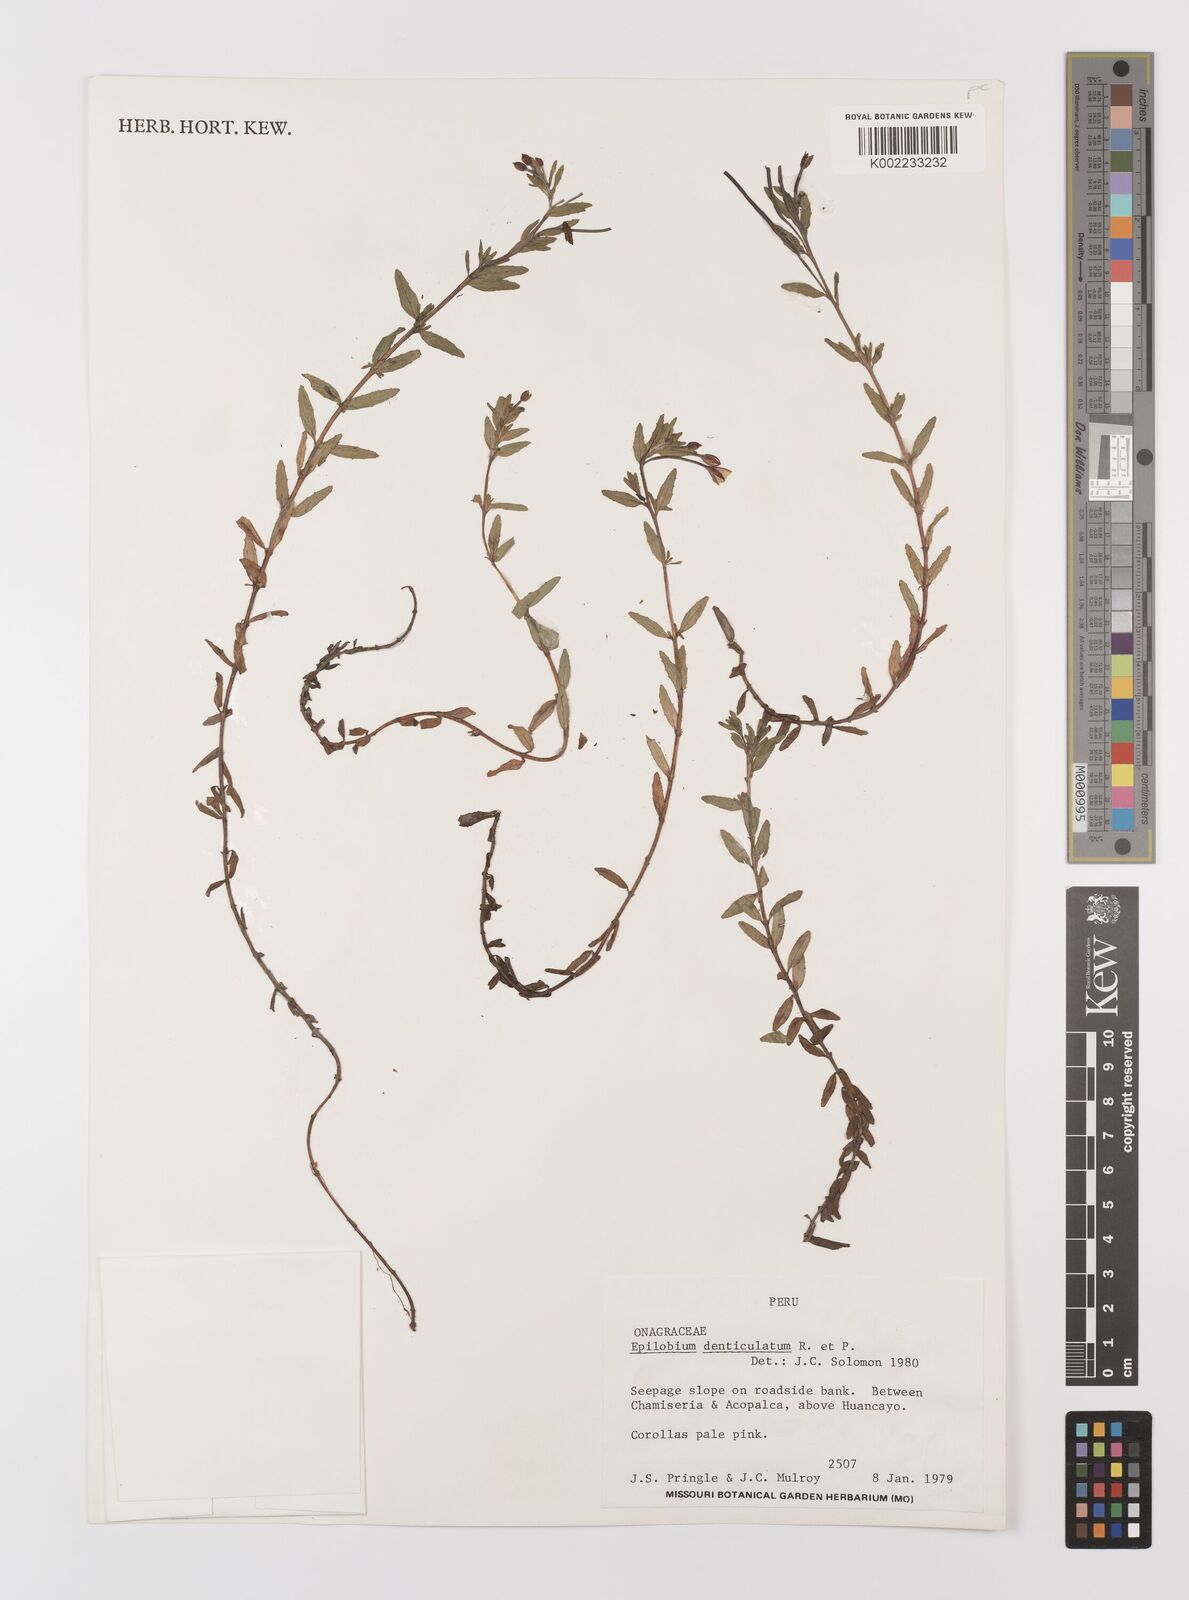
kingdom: Plantae
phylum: Tracheophyta
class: Magnoliopsida
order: Myrtales
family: Onagraceae
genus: Epilobium
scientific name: Epilobium denticulatum
